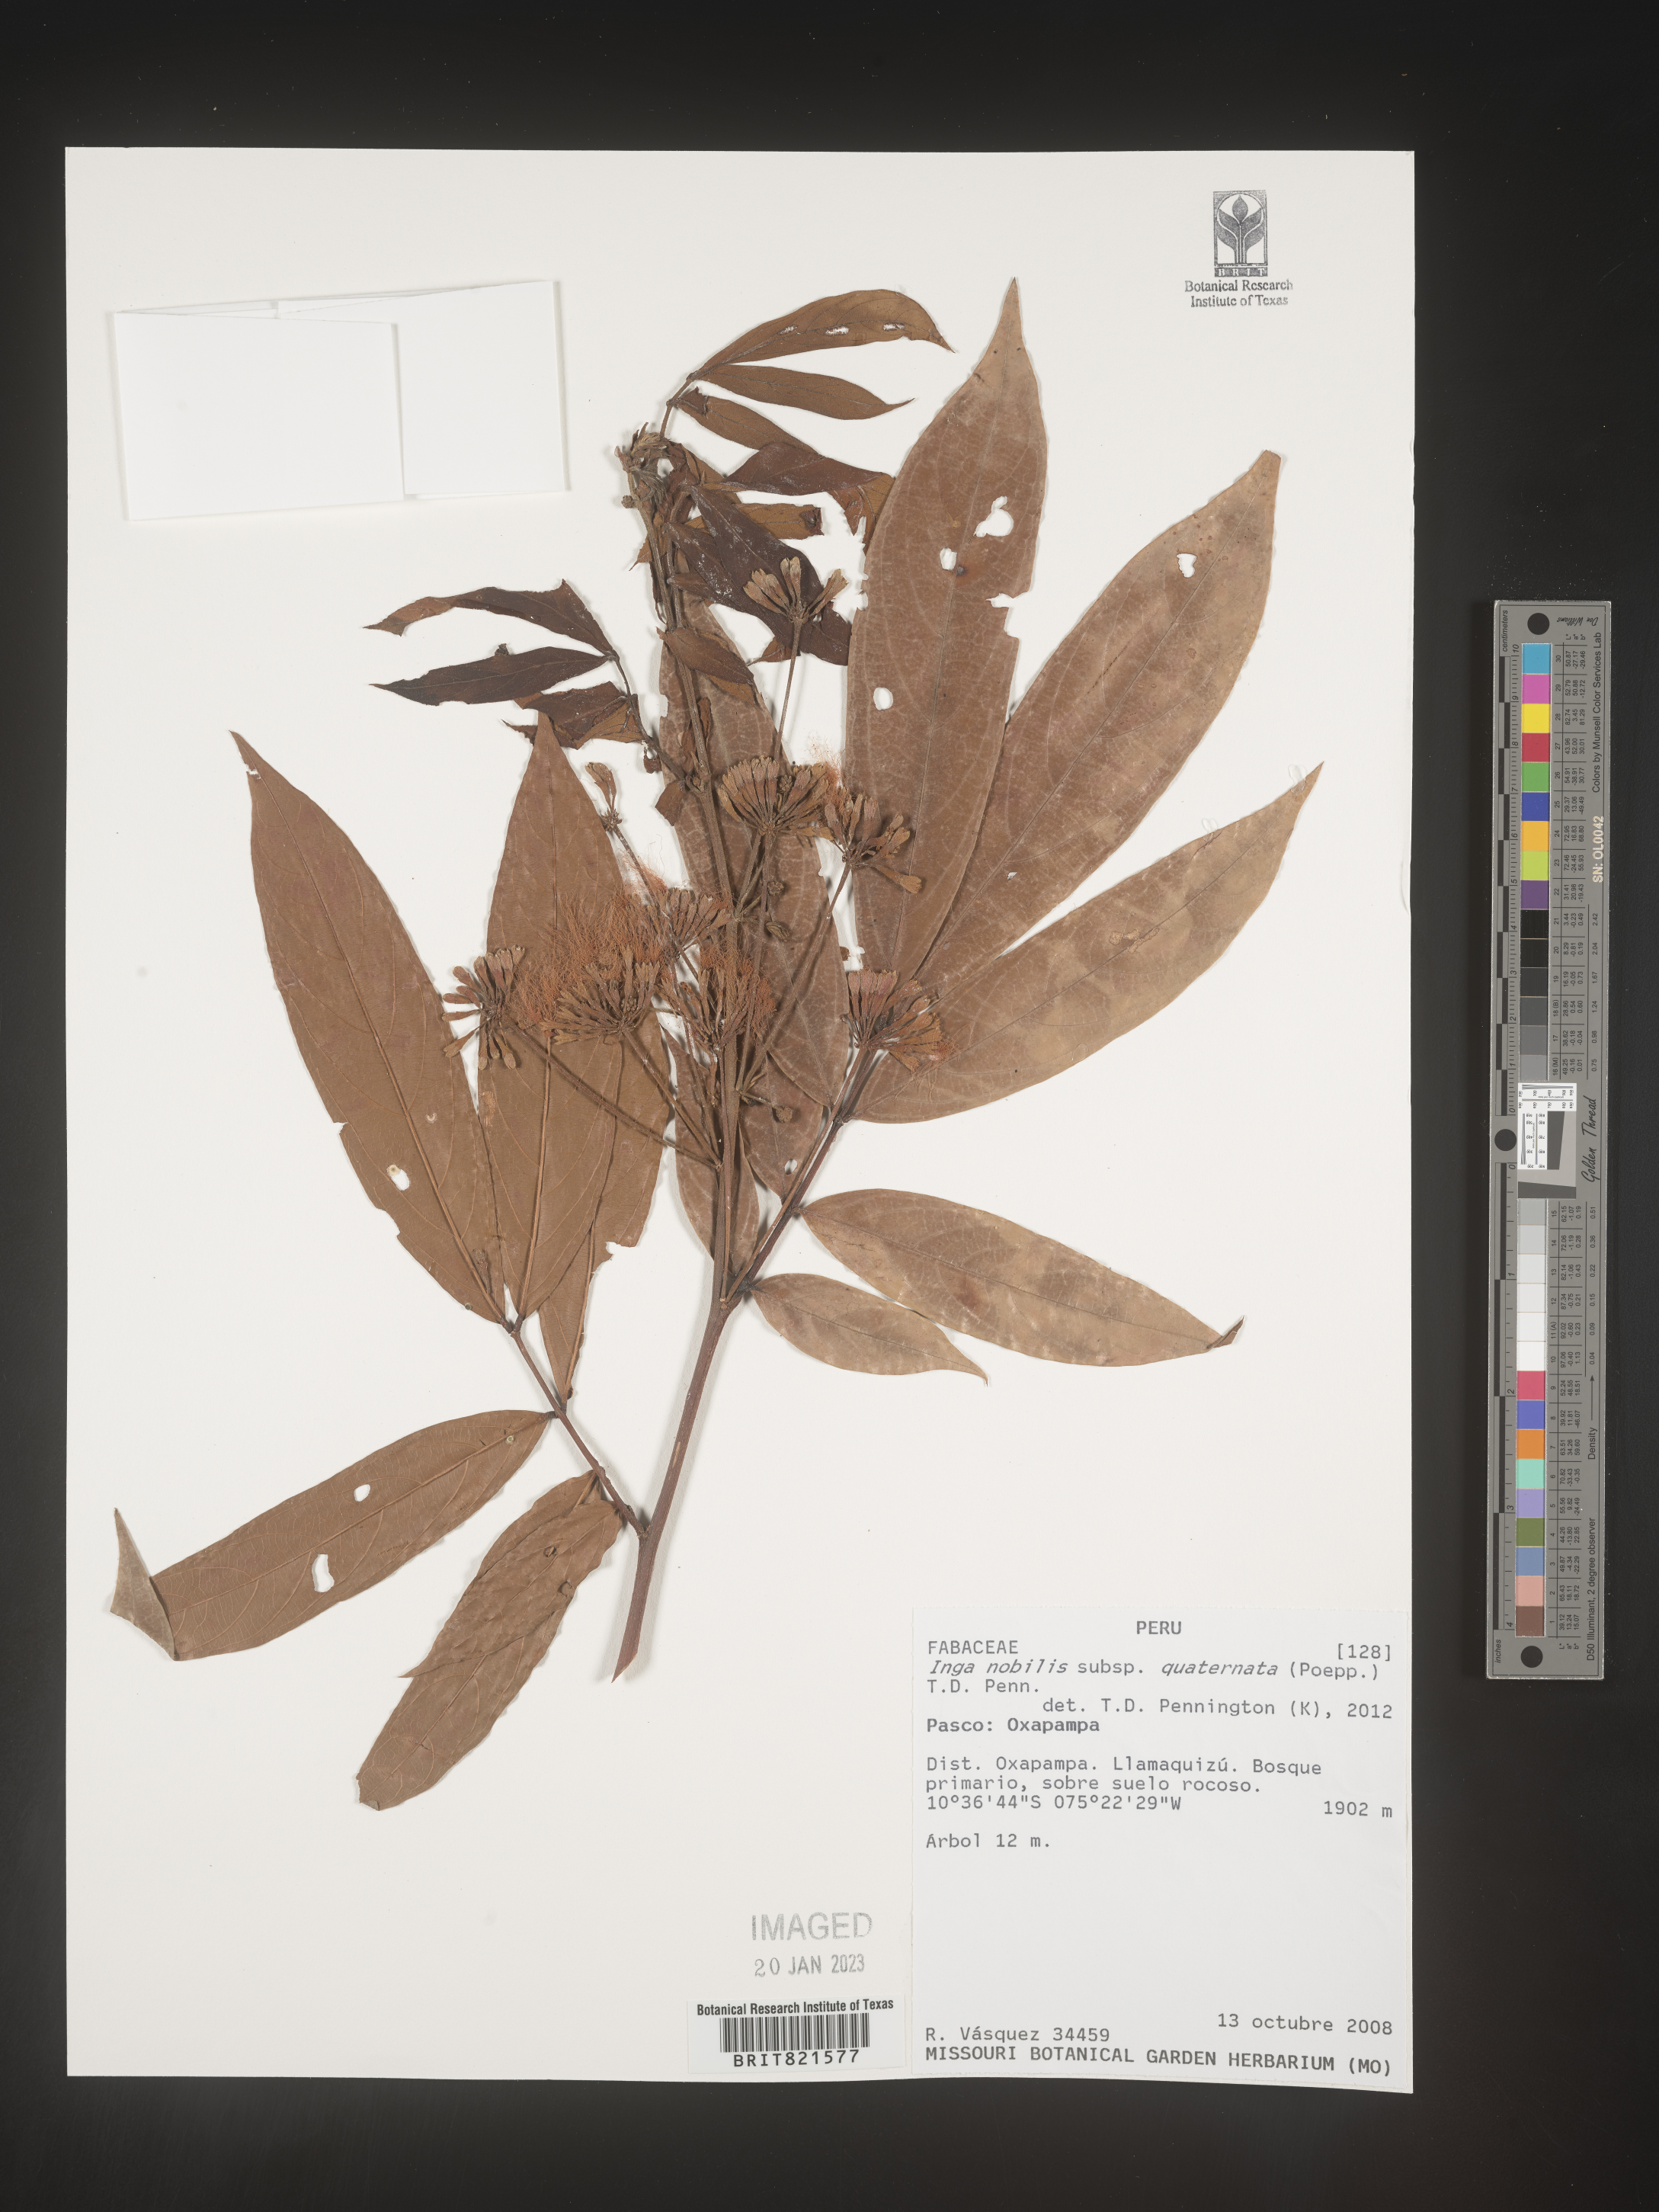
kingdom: Plantae
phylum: Tracheophyta
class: Magnoliopsida
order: Fabales
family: Fabaceae
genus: Inga
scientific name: Inga
